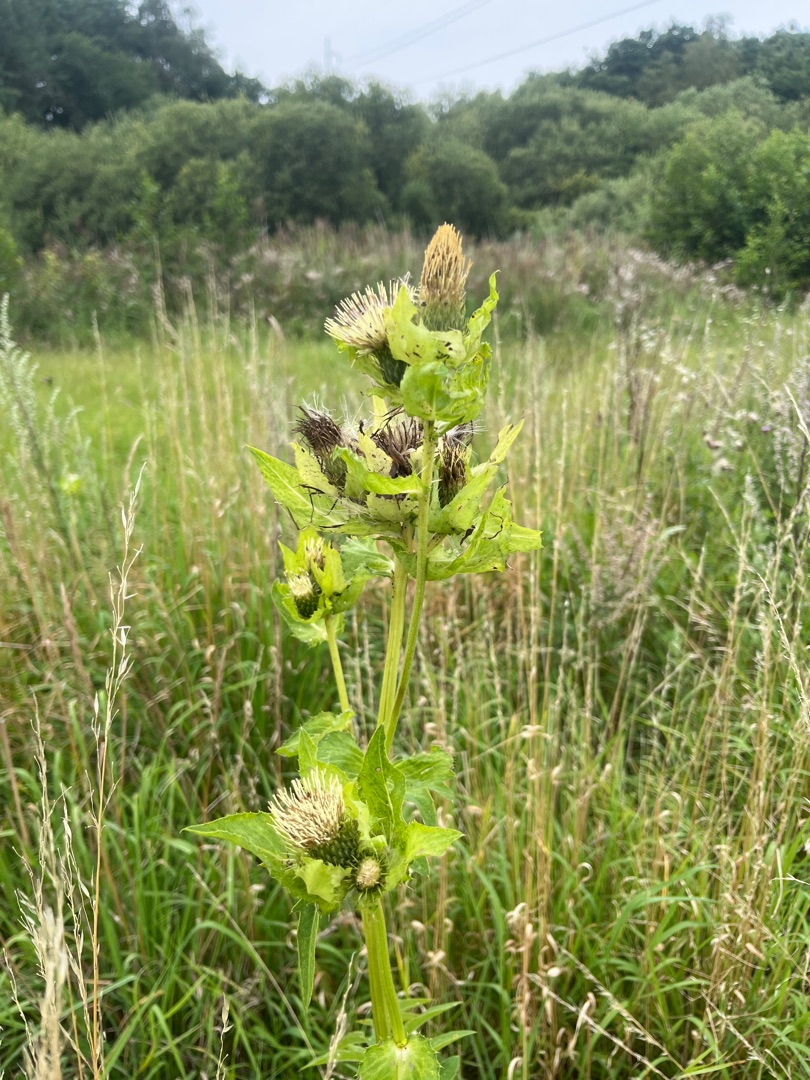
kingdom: Plantae
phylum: Tracheophyta
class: Magnoliopsida
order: Asterales
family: Asteraceae
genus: Cirsium
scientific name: Cirsium oleraceum
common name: Kål-tidsel
